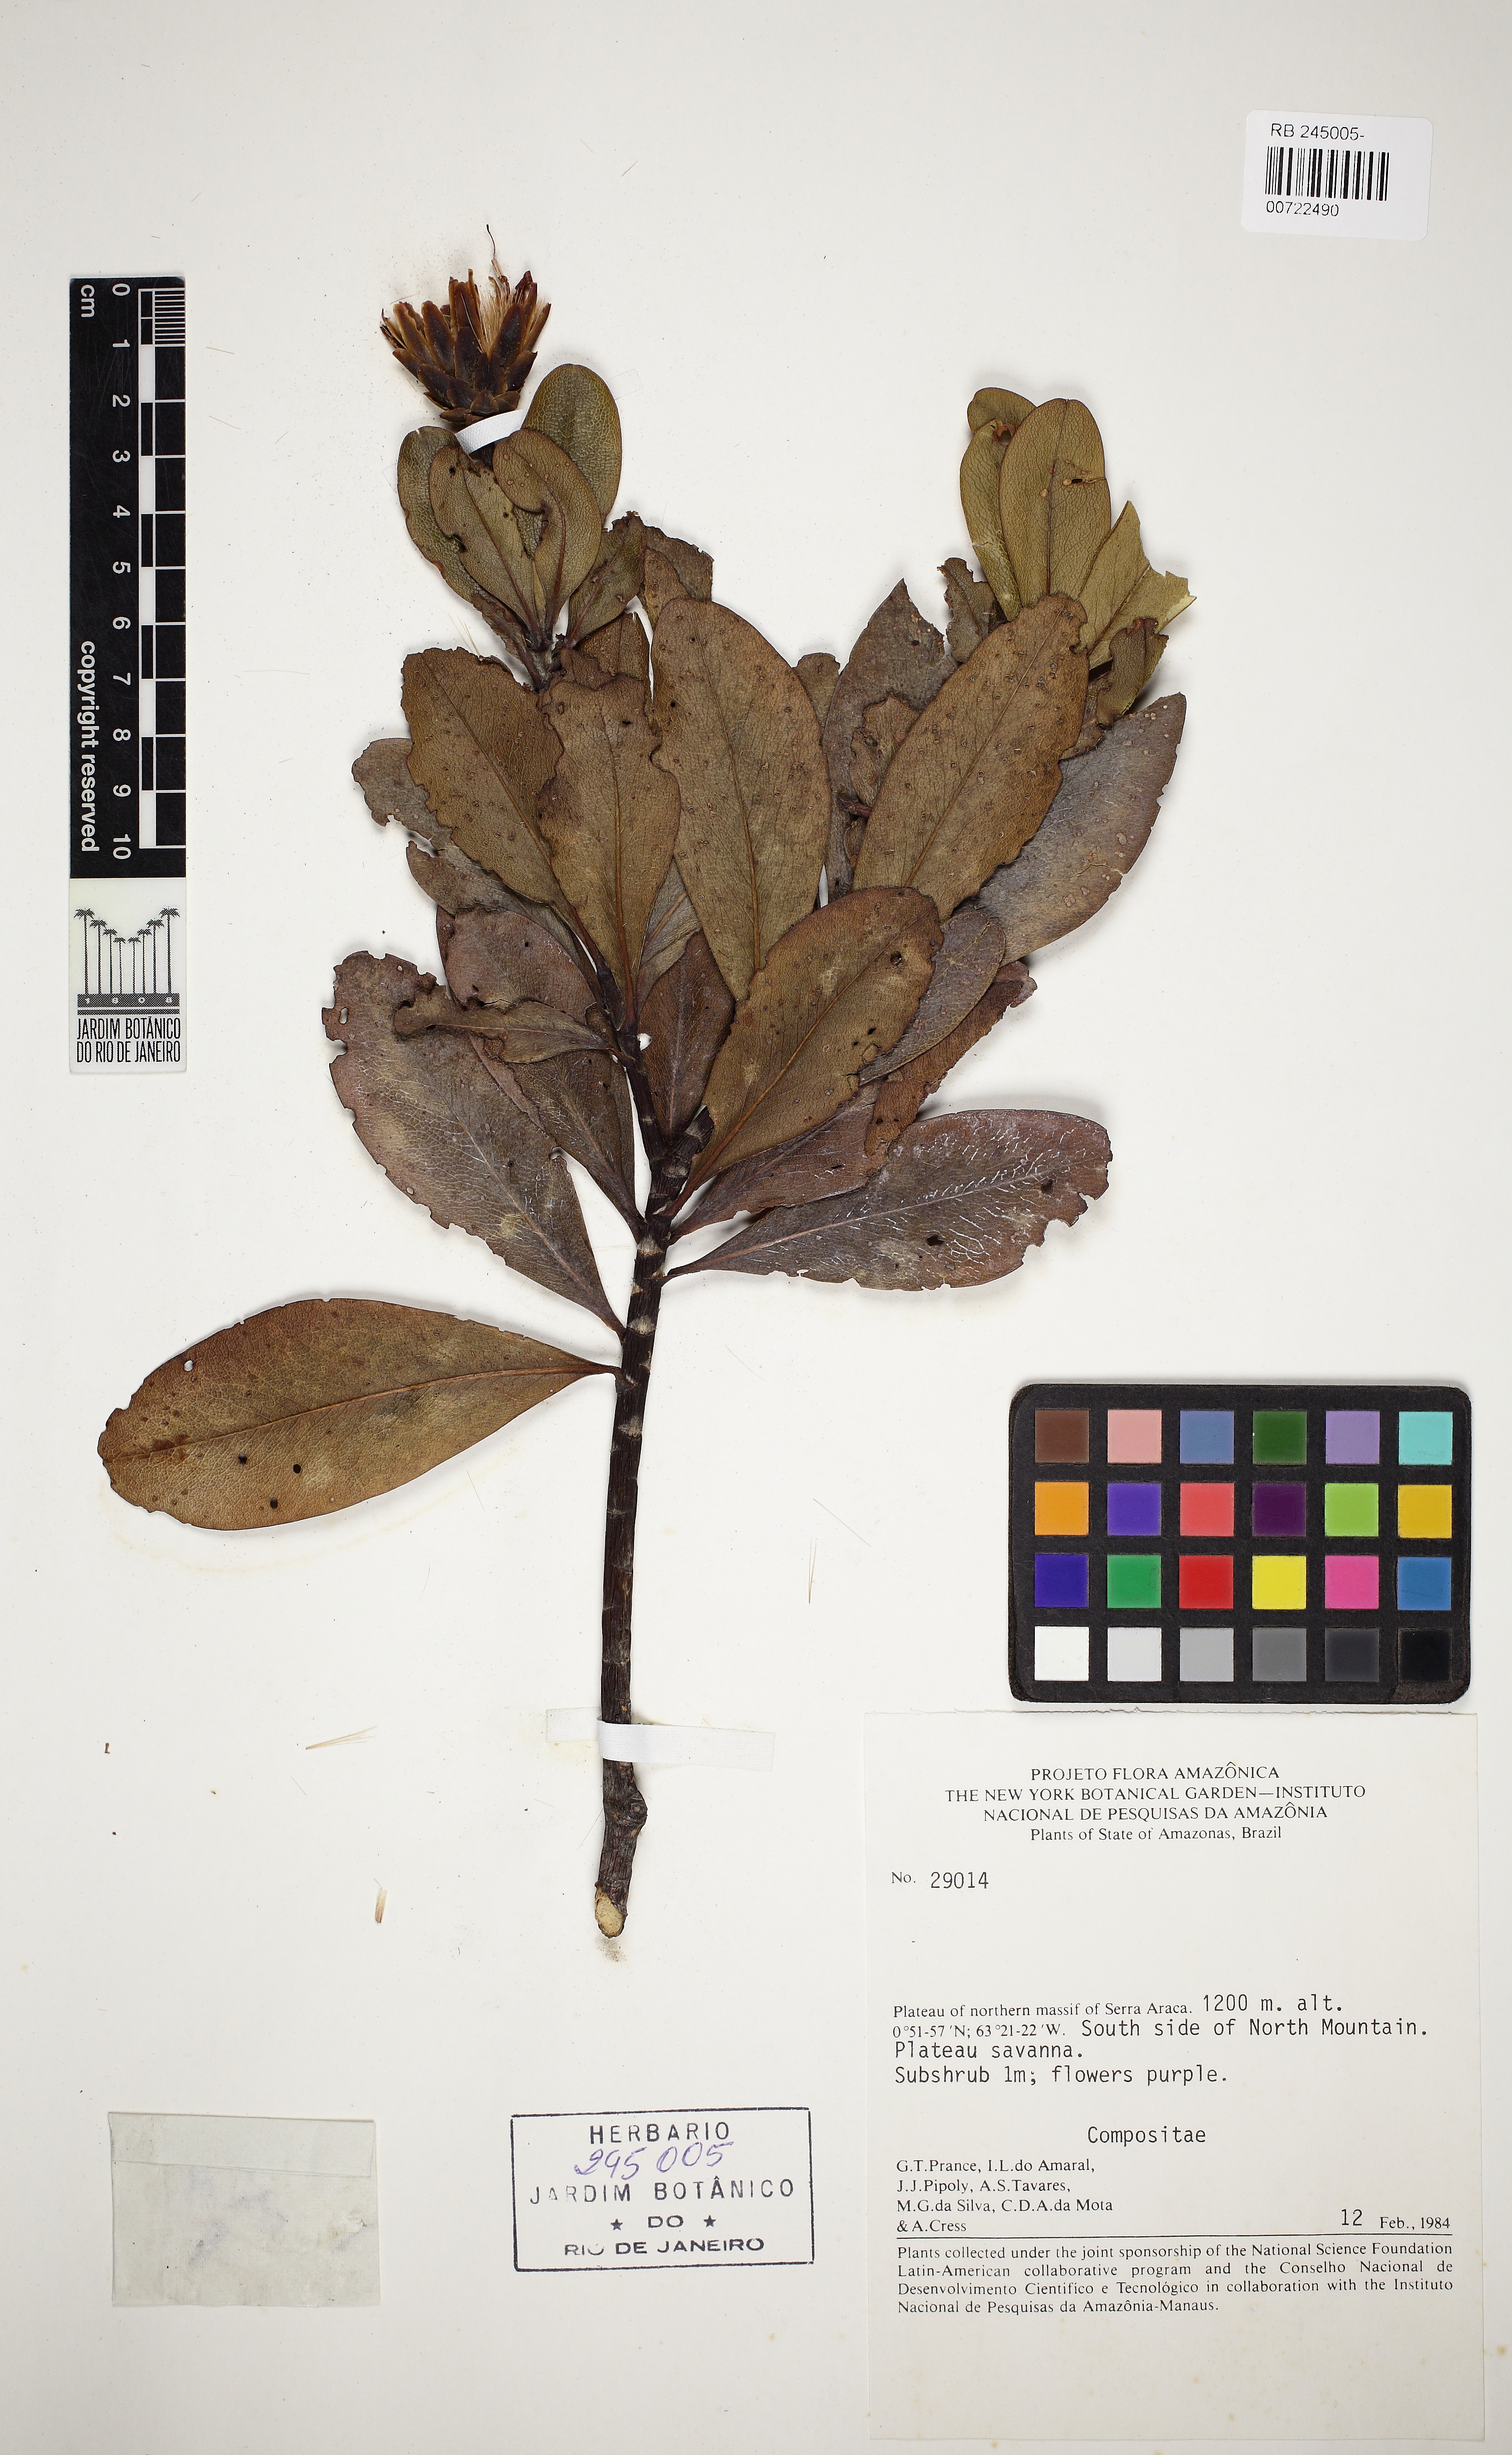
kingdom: Plantae
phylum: Tracheophyta
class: Magnoliopsida
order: Asterales
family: Asteraceae
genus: Gongylolepis
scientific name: Gongylolepis oblanceolata
